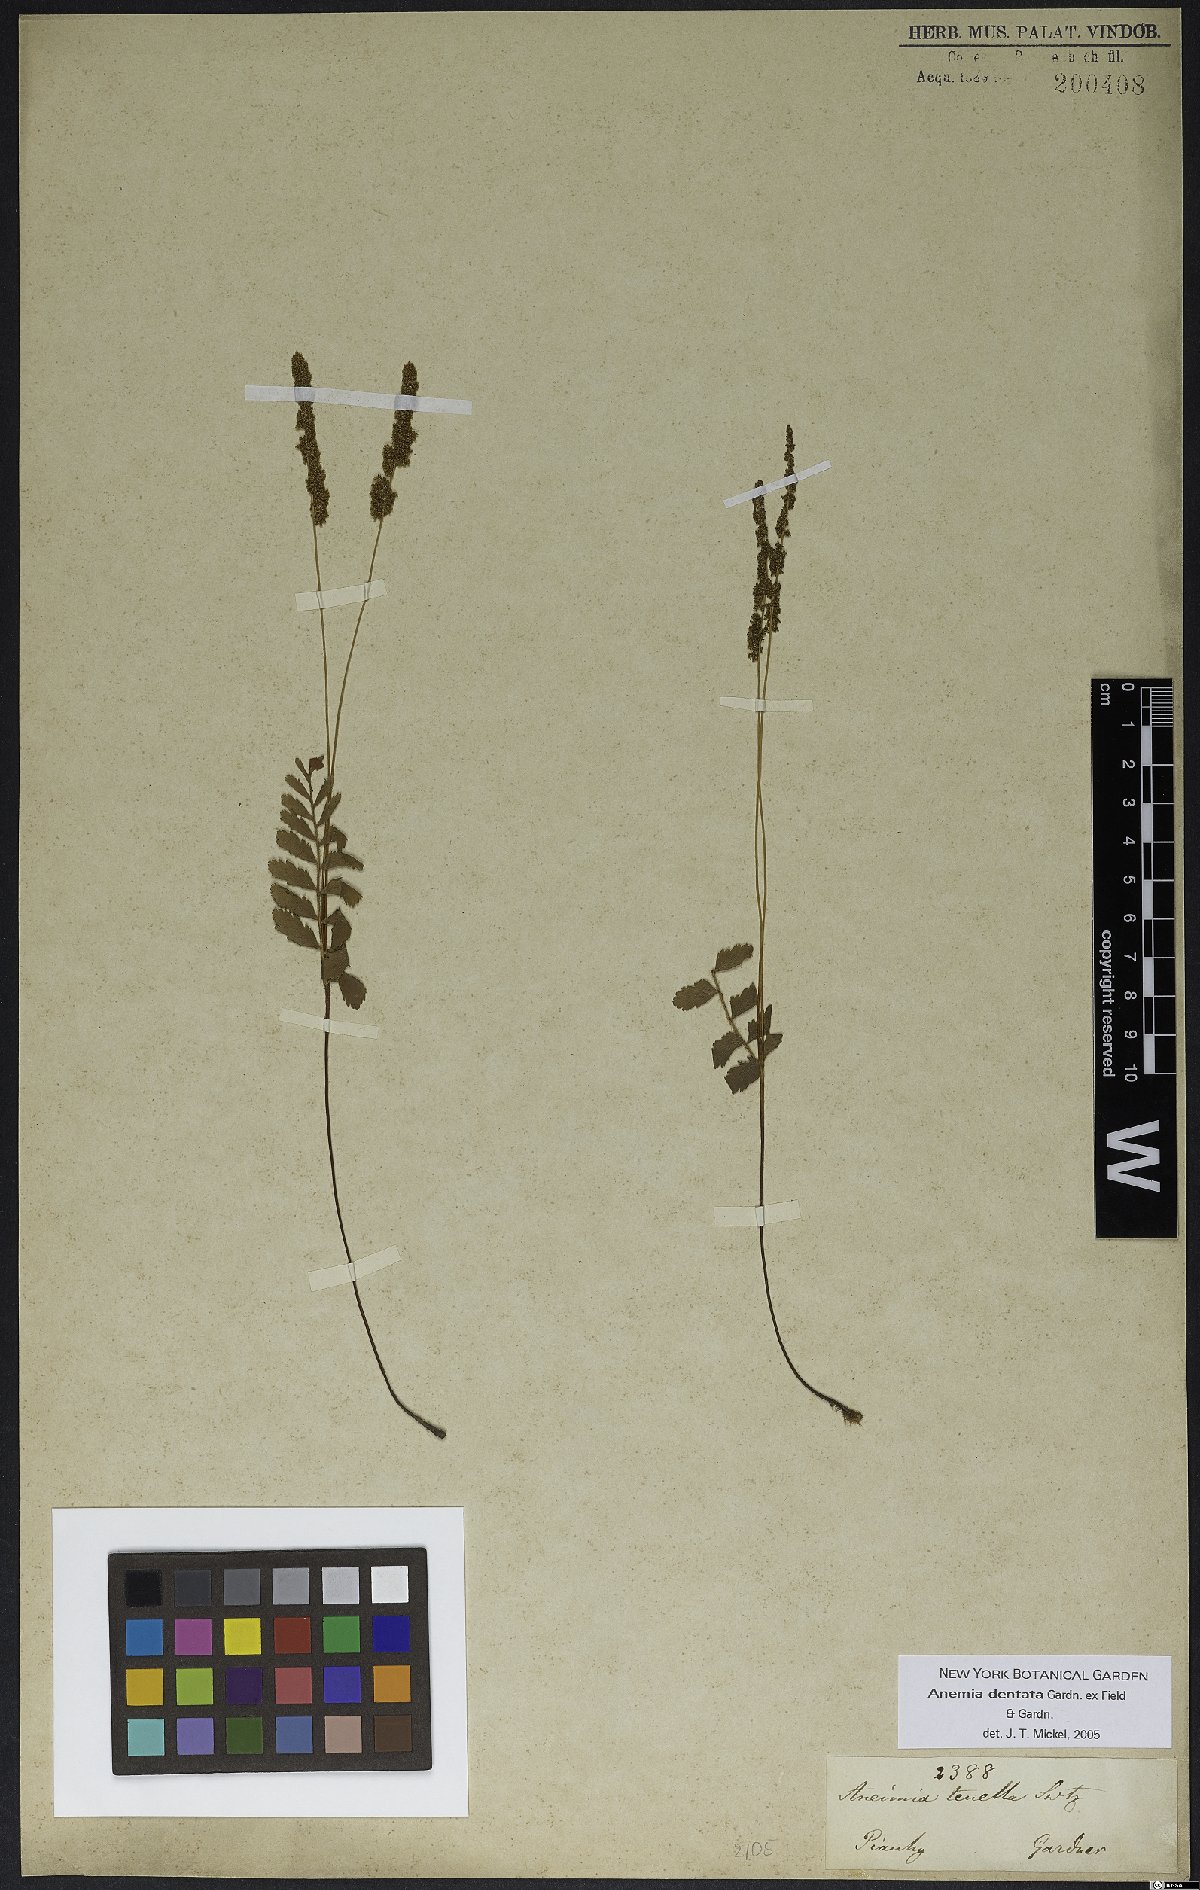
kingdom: Plantae
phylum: Tracheophyta
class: Polypodiopsida
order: Schizaeales
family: Anemiaceae
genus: Anemia
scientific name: Anemia dentata
